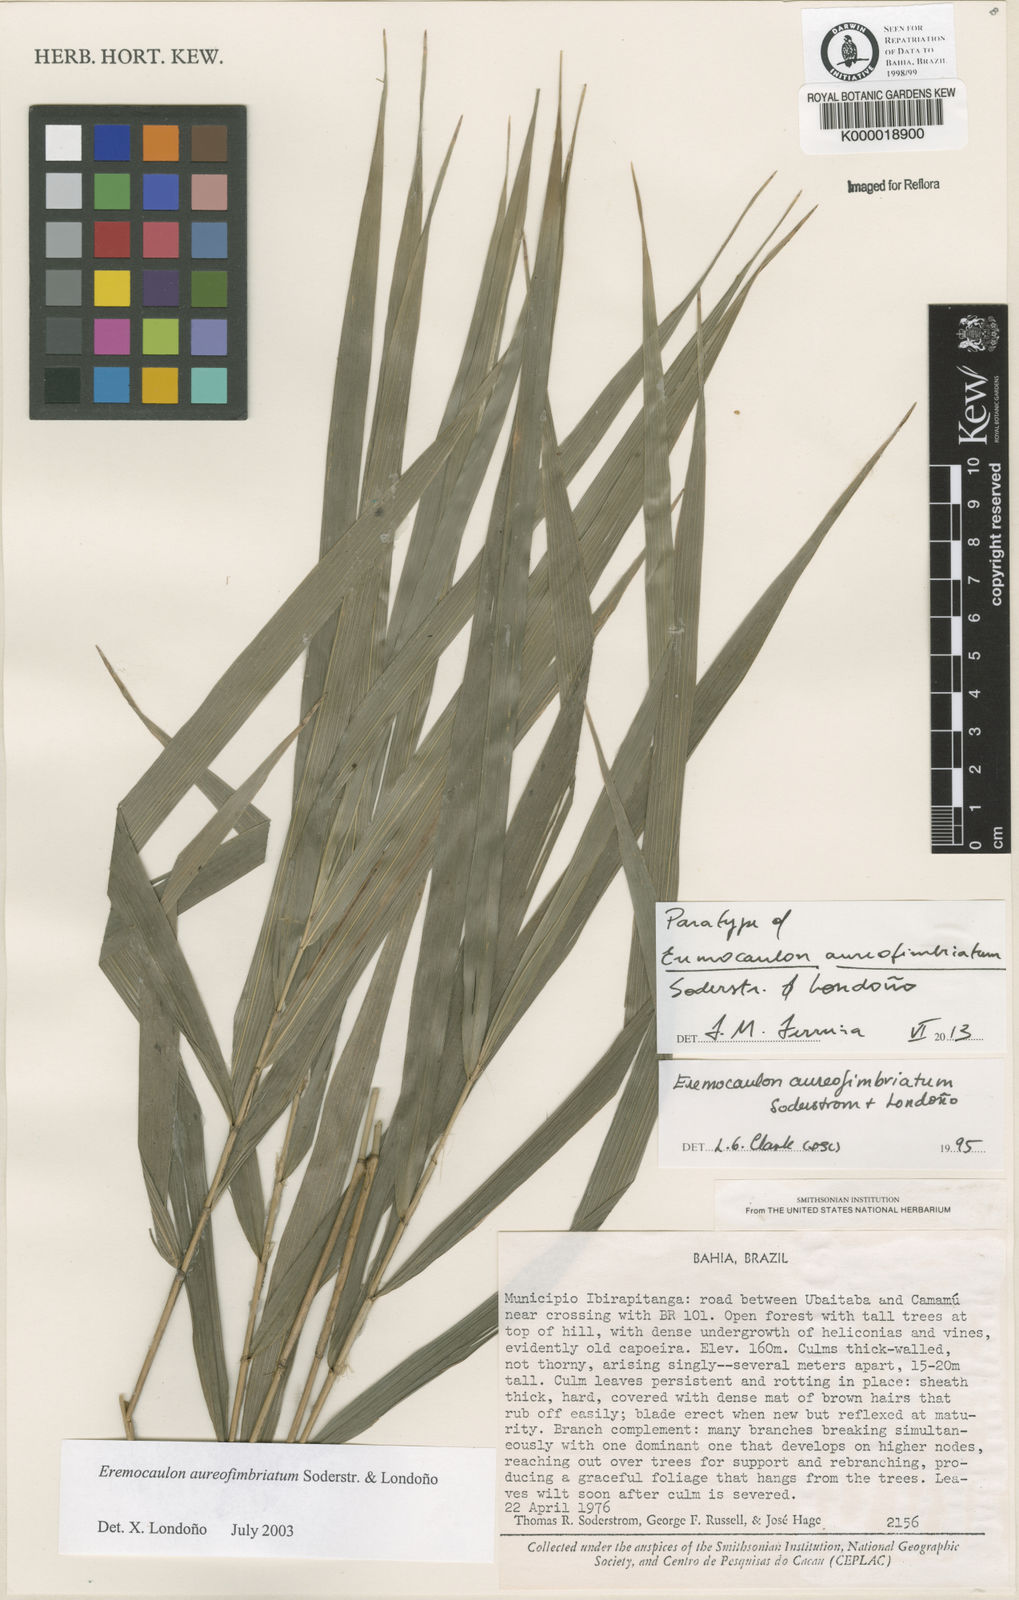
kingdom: Plantae
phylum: Tracheophyta
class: Liliopsida
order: Poales
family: Poaceae
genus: Eremocaulon
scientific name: Eremocaulon
